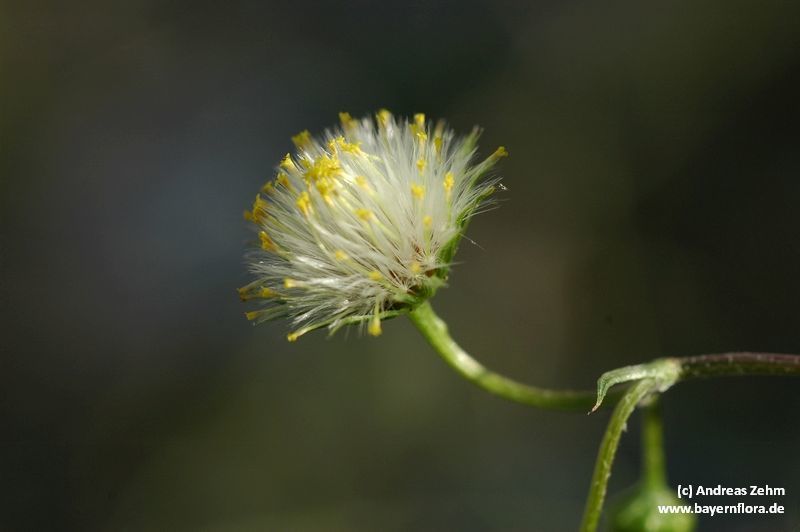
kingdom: Plantae
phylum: Tracheophyta
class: Magnoliopsida
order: Asterales
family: Asteraceae
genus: Senecio
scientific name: Senecio vulgaris
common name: Old-man-in-the-spring
